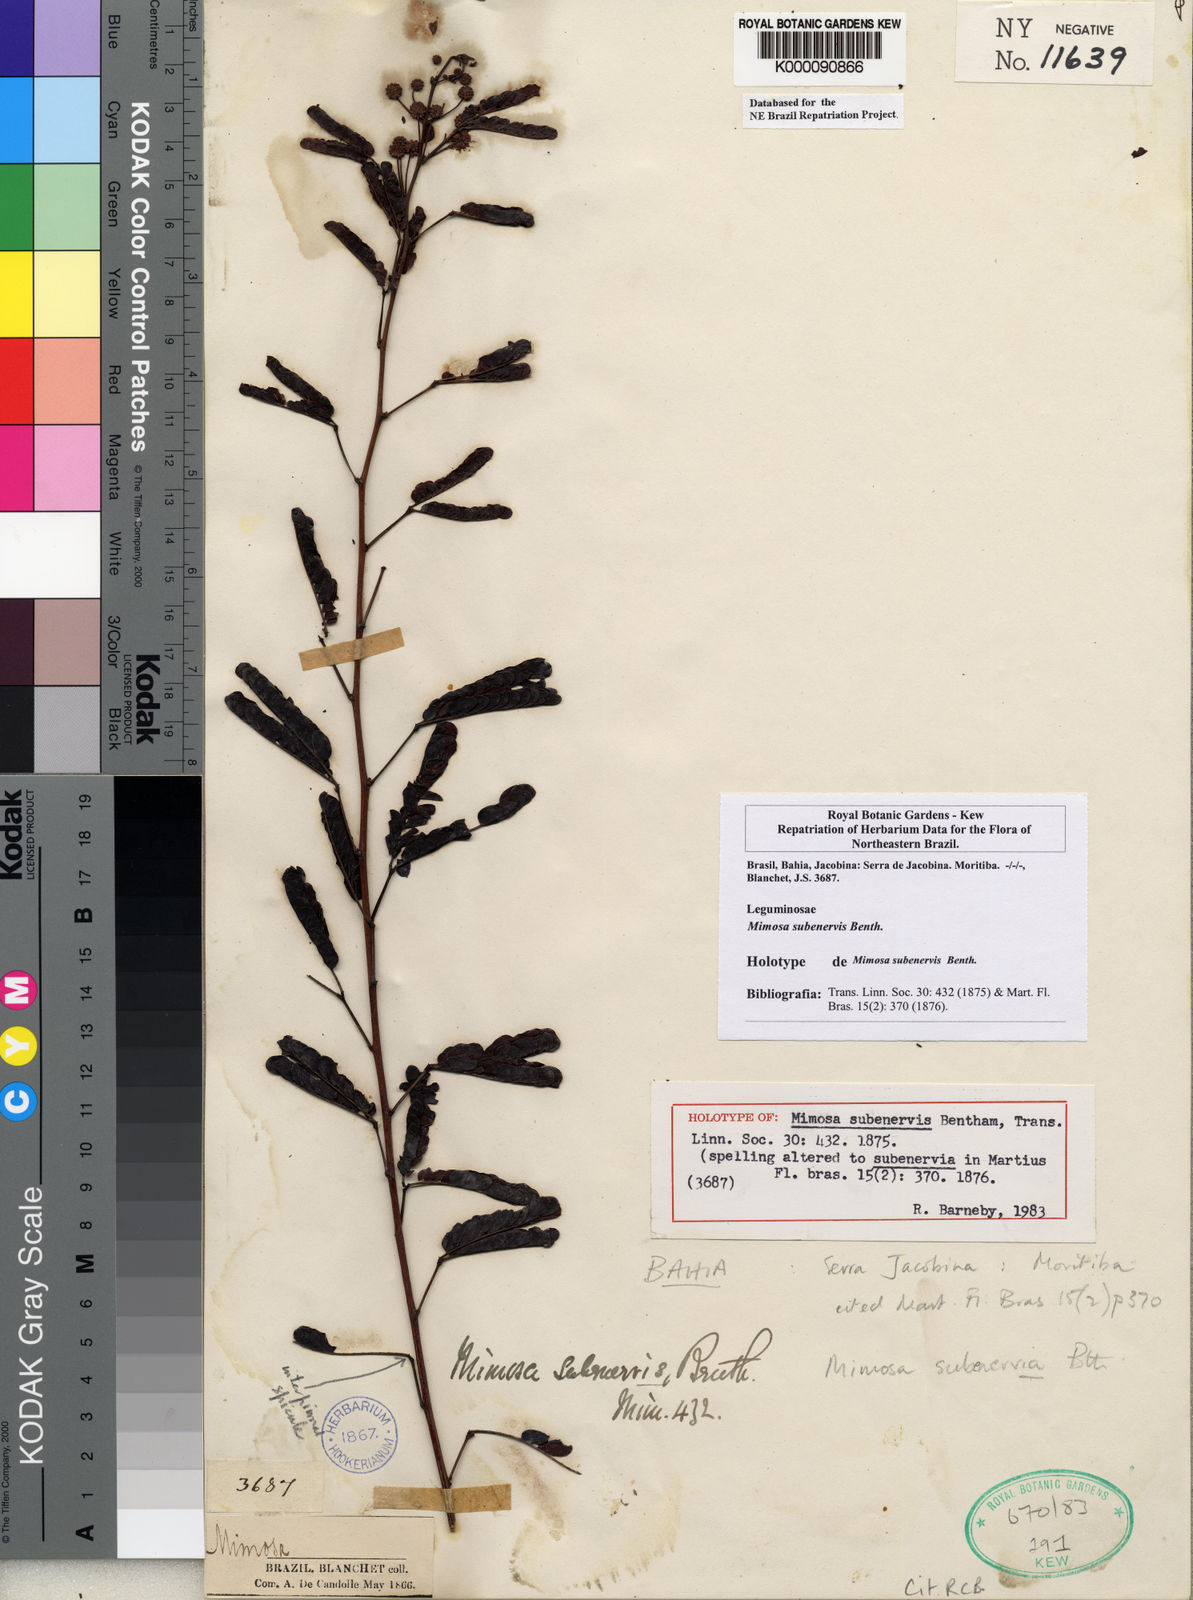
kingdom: Plantae
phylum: Tracheophyta
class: Magnoliopsida
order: Fabales
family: Fabaceae
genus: Mimosa
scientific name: Mimosa subenervis
